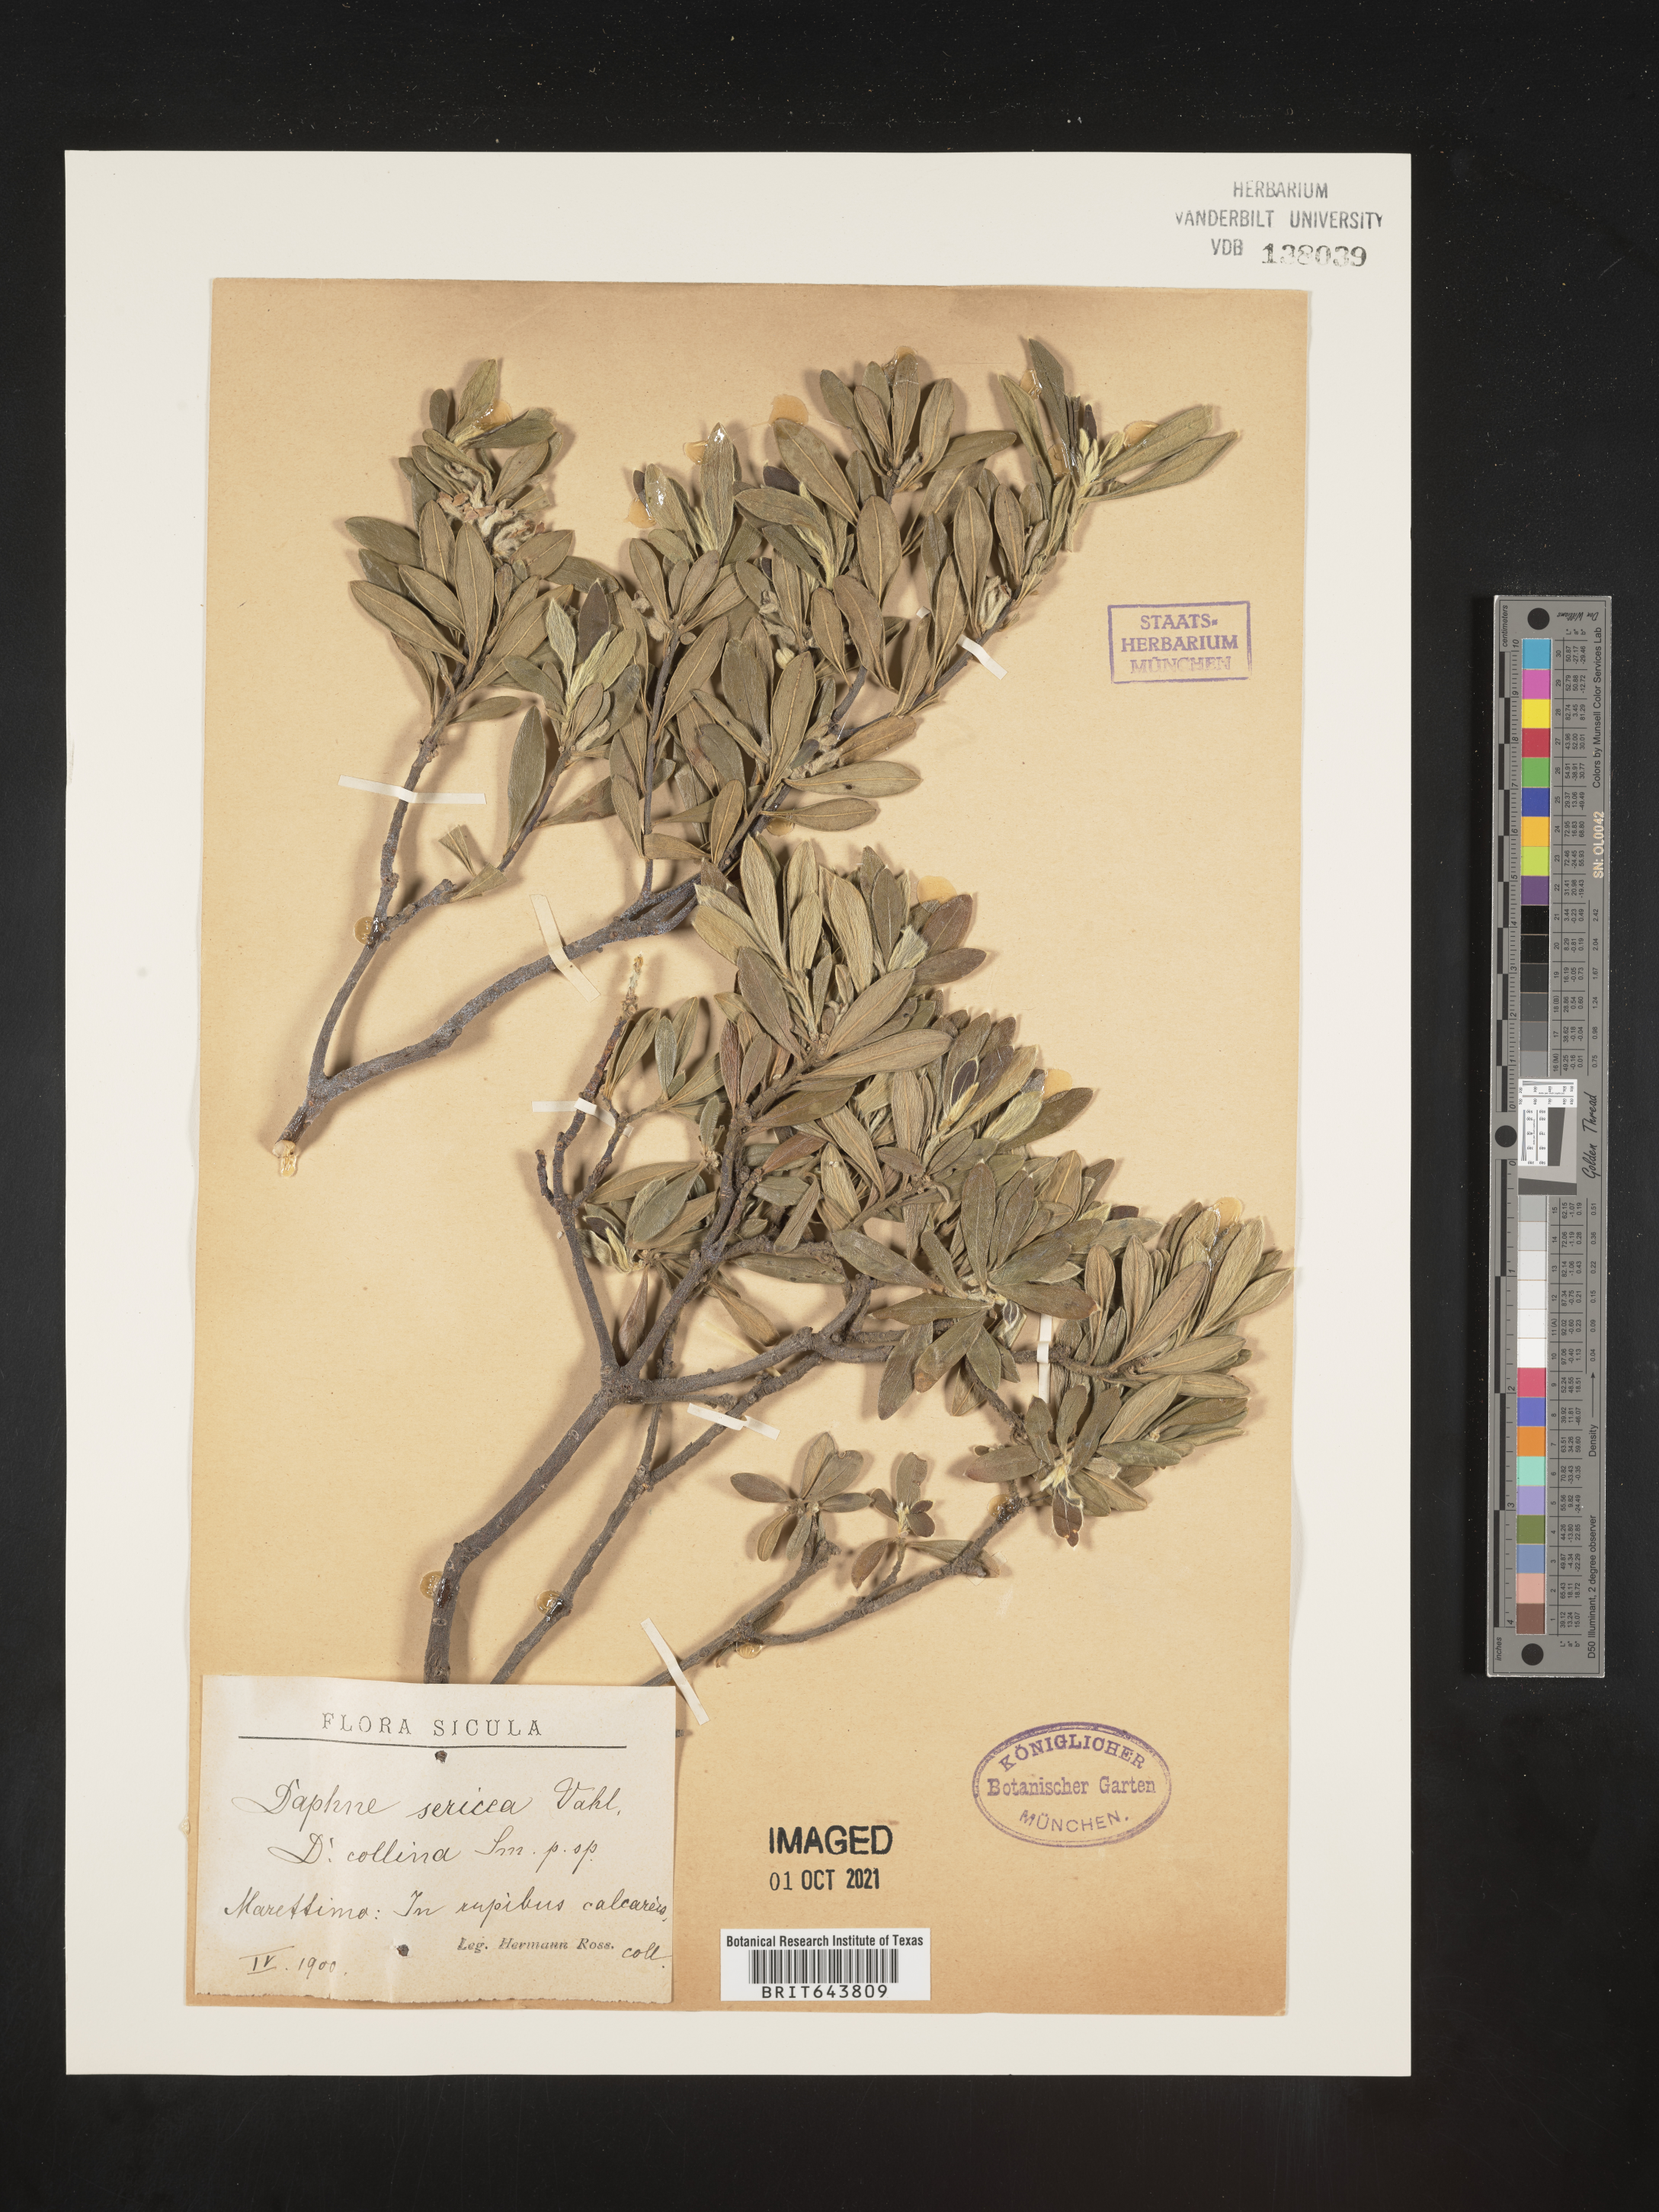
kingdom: Plantae
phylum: Tracheophyta
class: Magnoliopsida
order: Malvales
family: Thymelaeaceae
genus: Daphne
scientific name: Daphne
